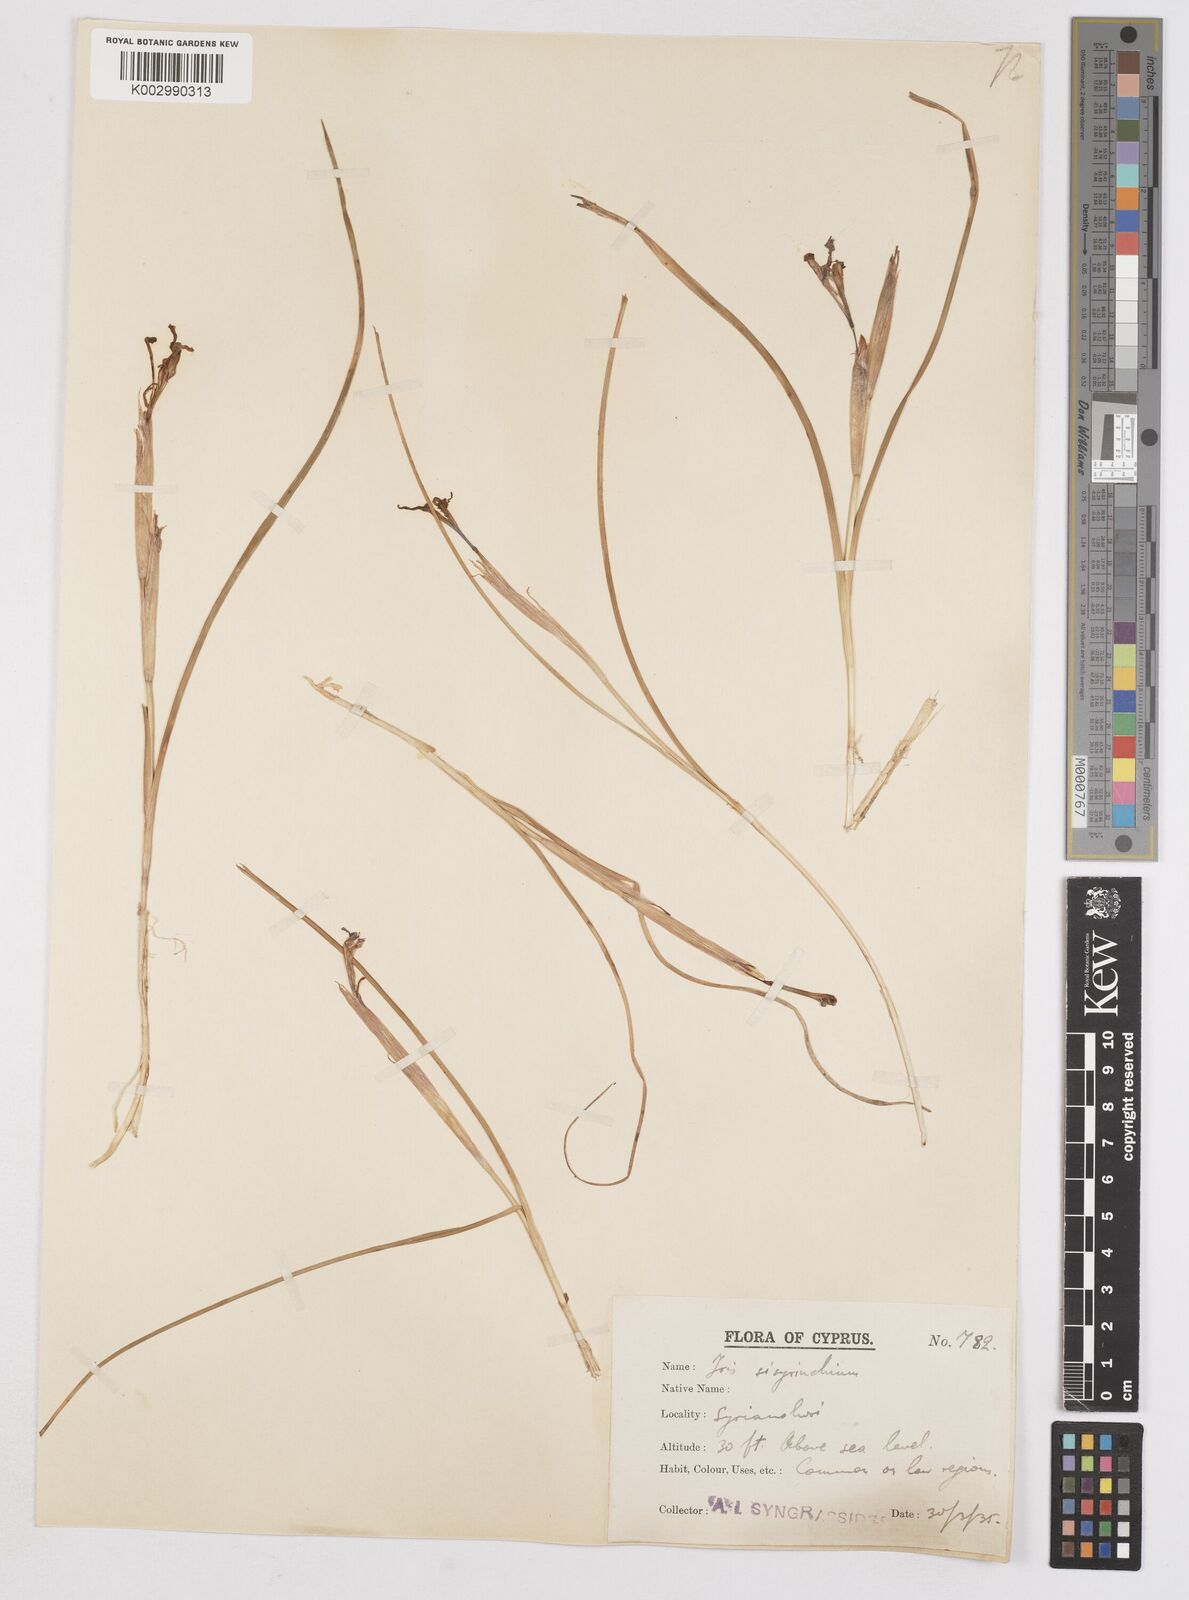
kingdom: Plantae
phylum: Tracheophyta
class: Liliopsida
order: Asparagales
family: Iridaceae
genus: Moraea
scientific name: Moraea sisyrinchium
